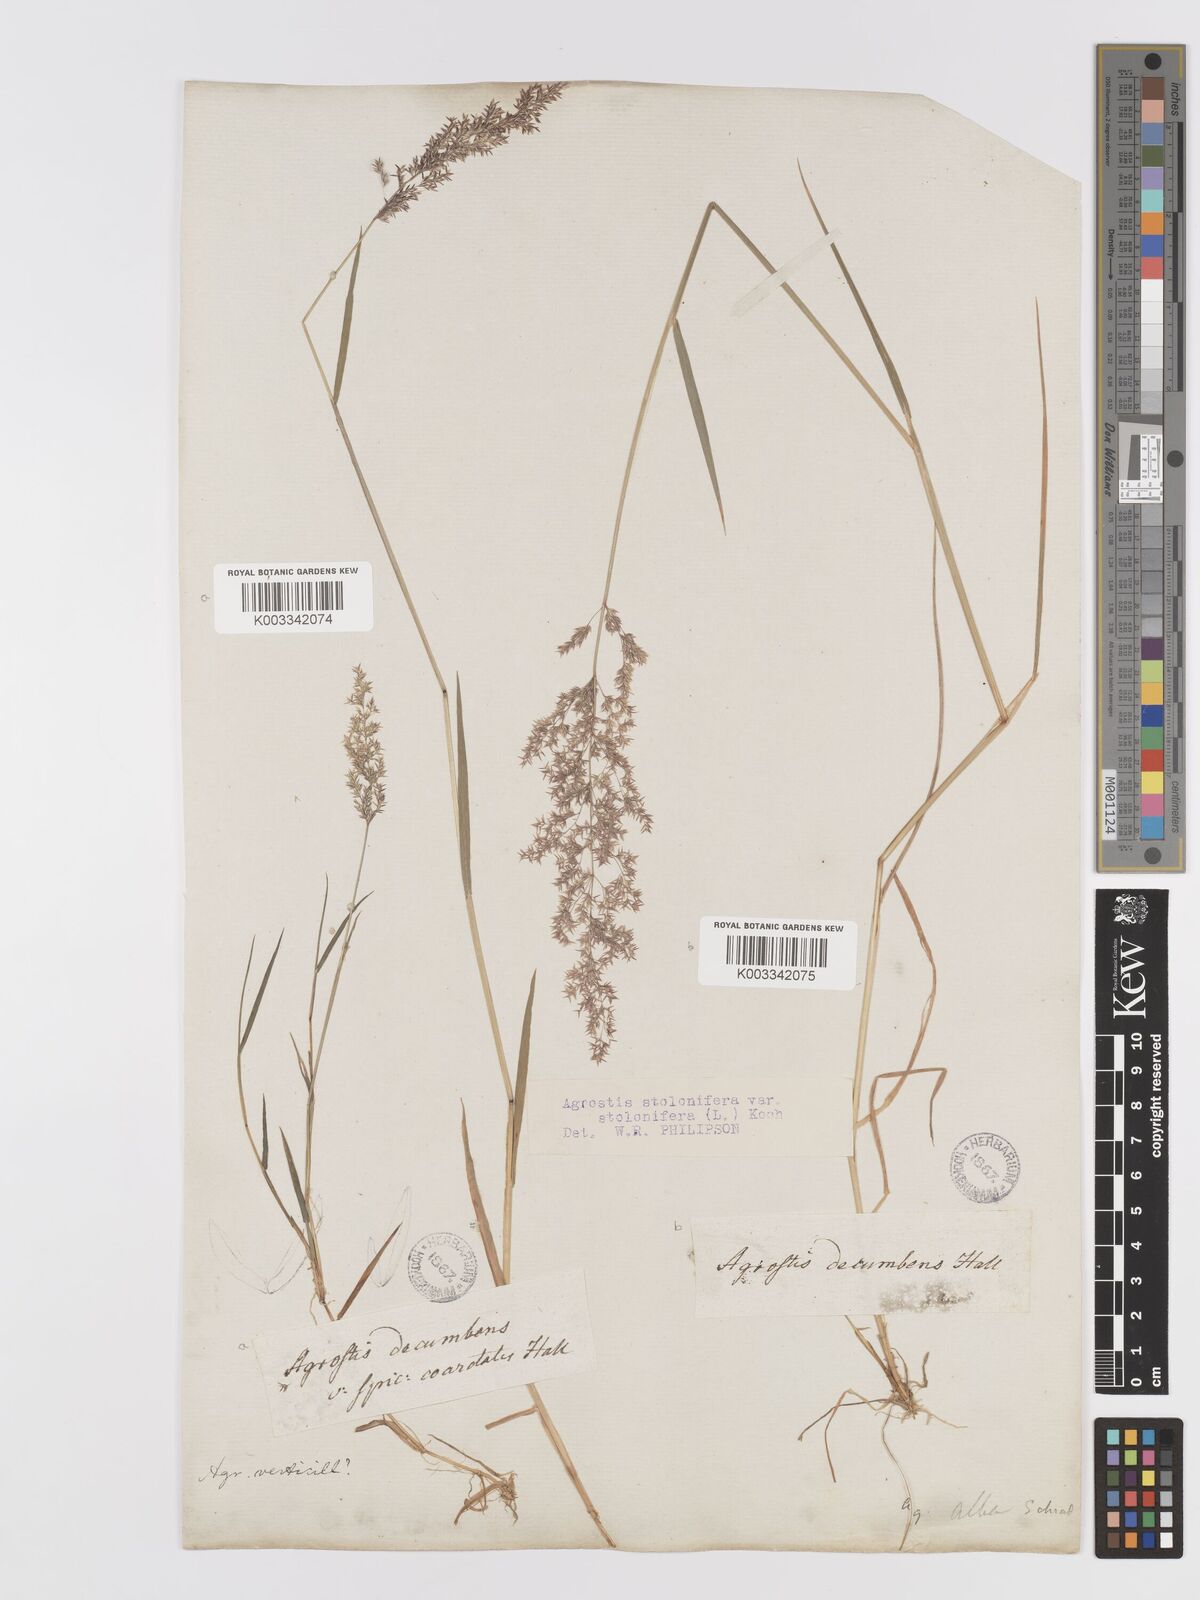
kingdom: Plantae
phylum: Tracheophyta
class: Liliopsida
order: Poales
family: Poaceae
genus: Agrostis
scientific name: Agrostis stolonifera
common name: Creeping bentgrass
